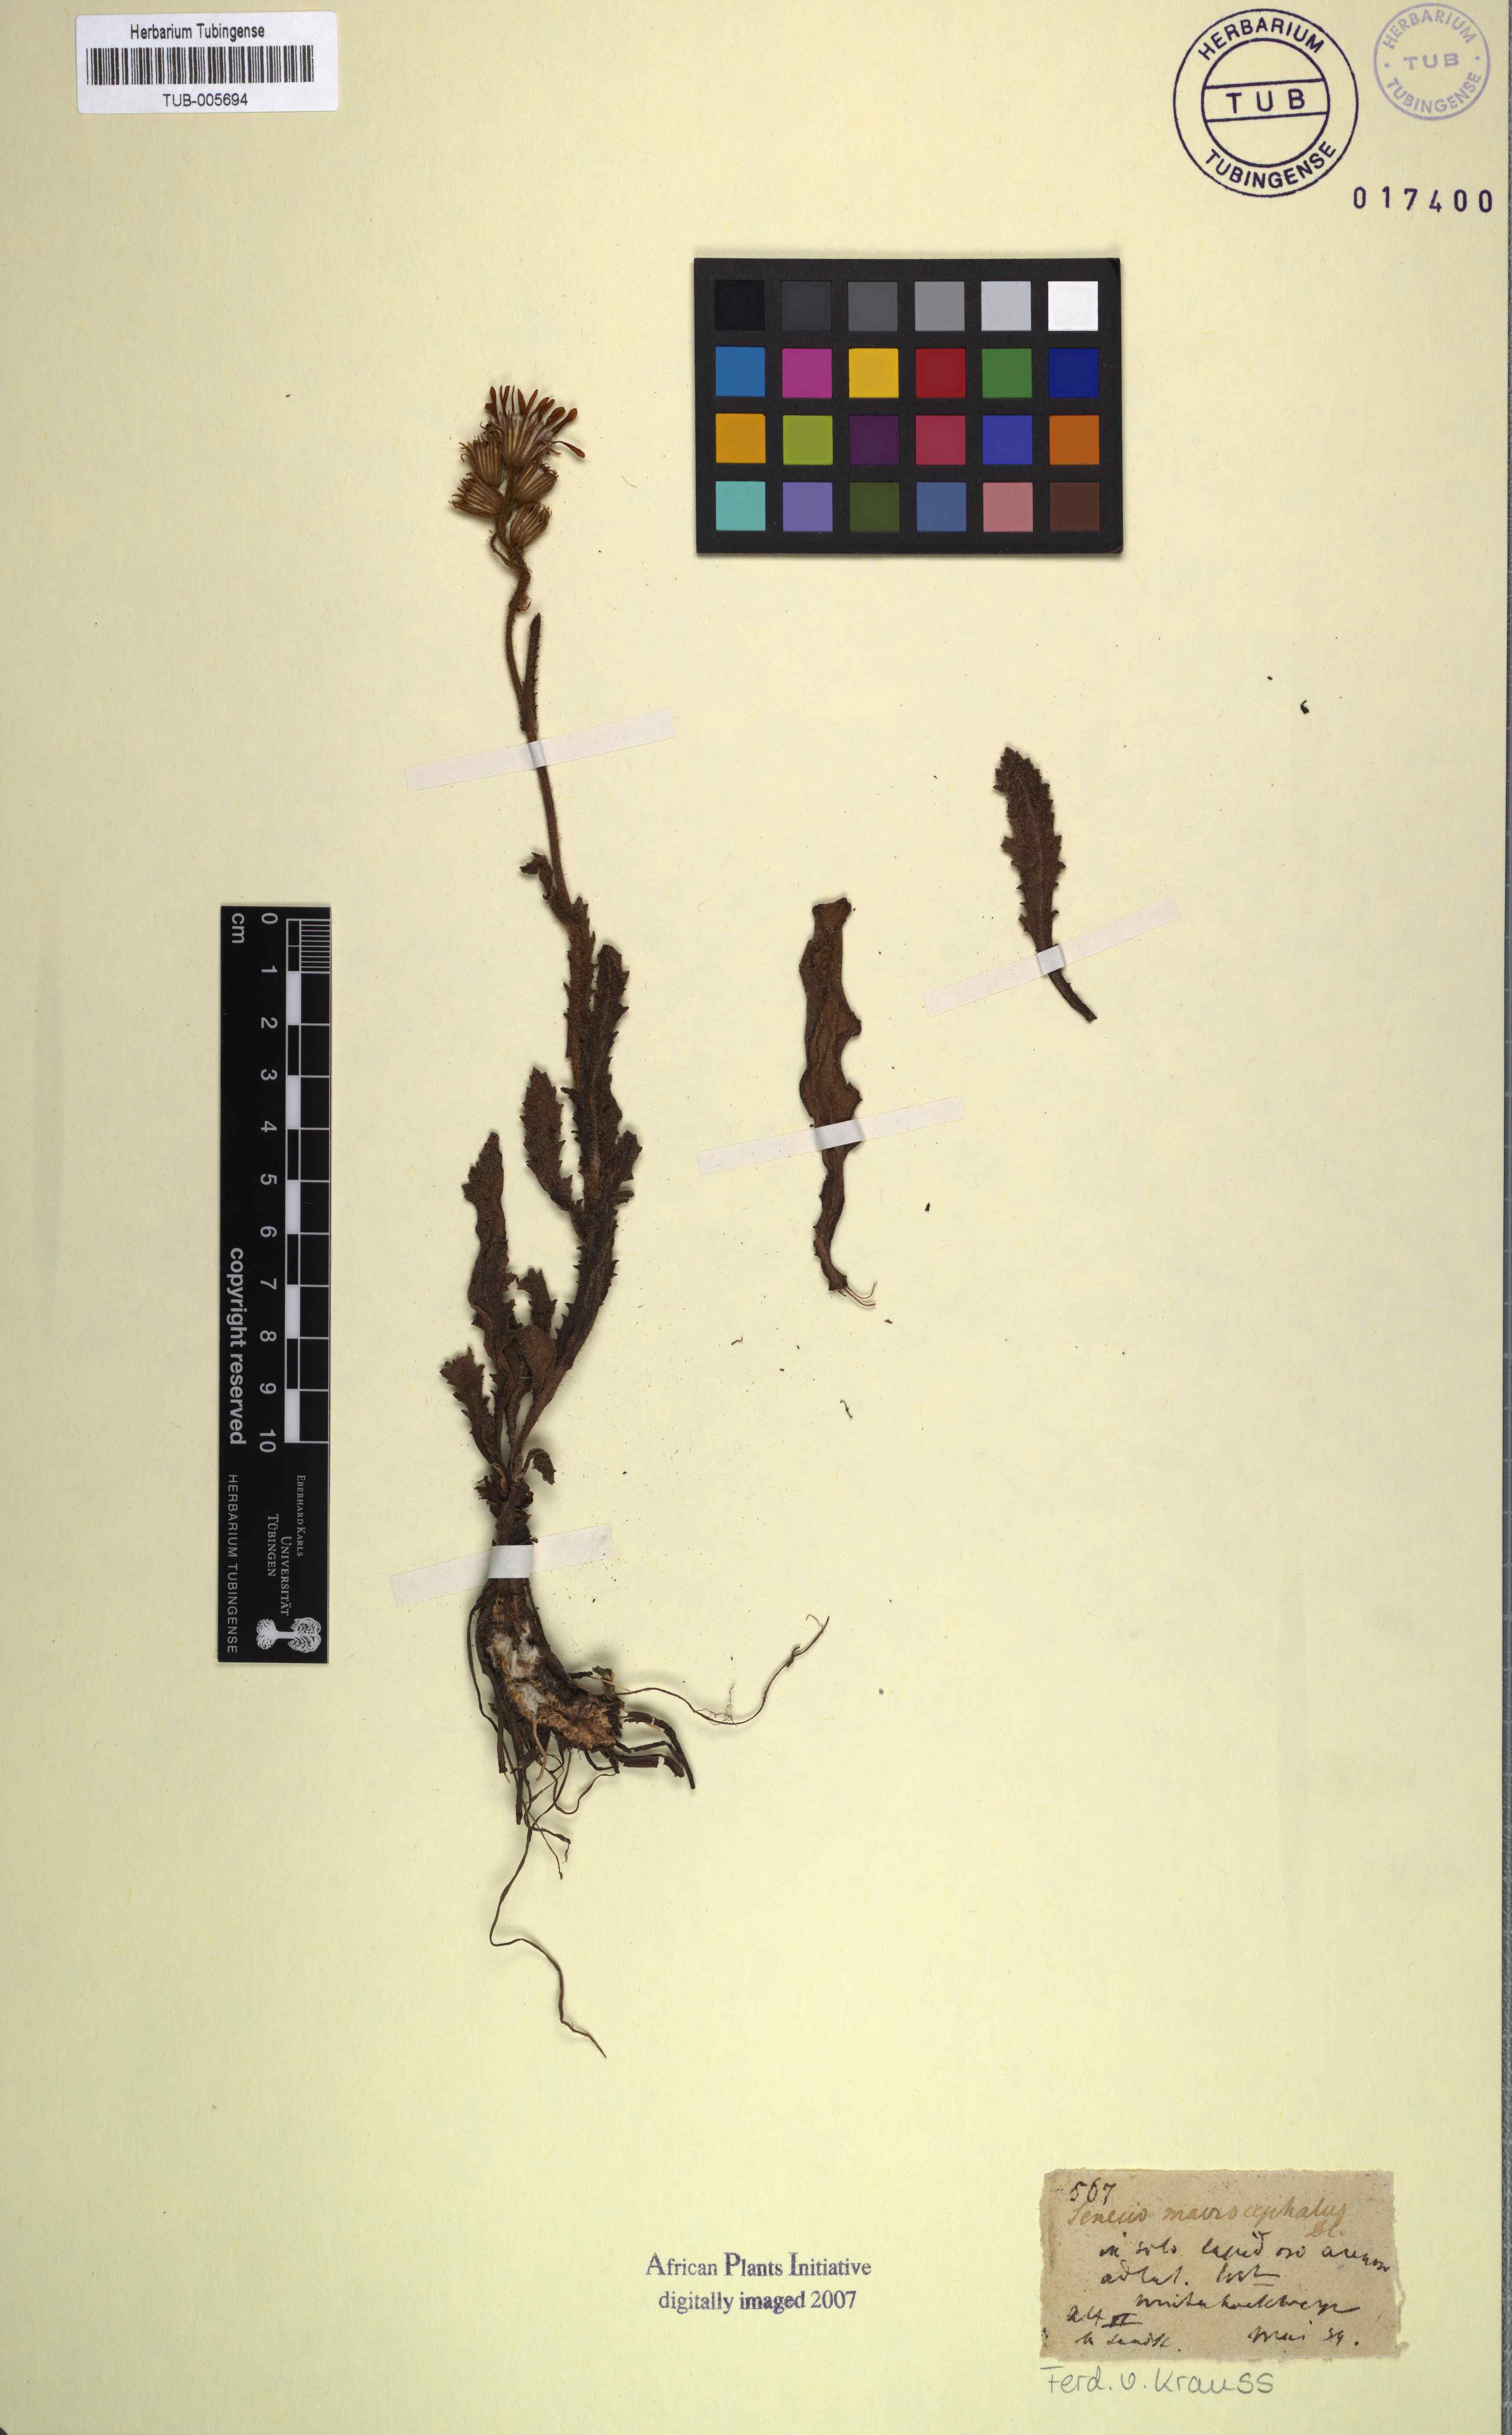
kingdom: Plantae
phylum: Tracheophyta
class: Magnoliopsida
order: Asterales
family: Asteraceae
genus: Senecio
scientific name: Senecio macrocephalus
